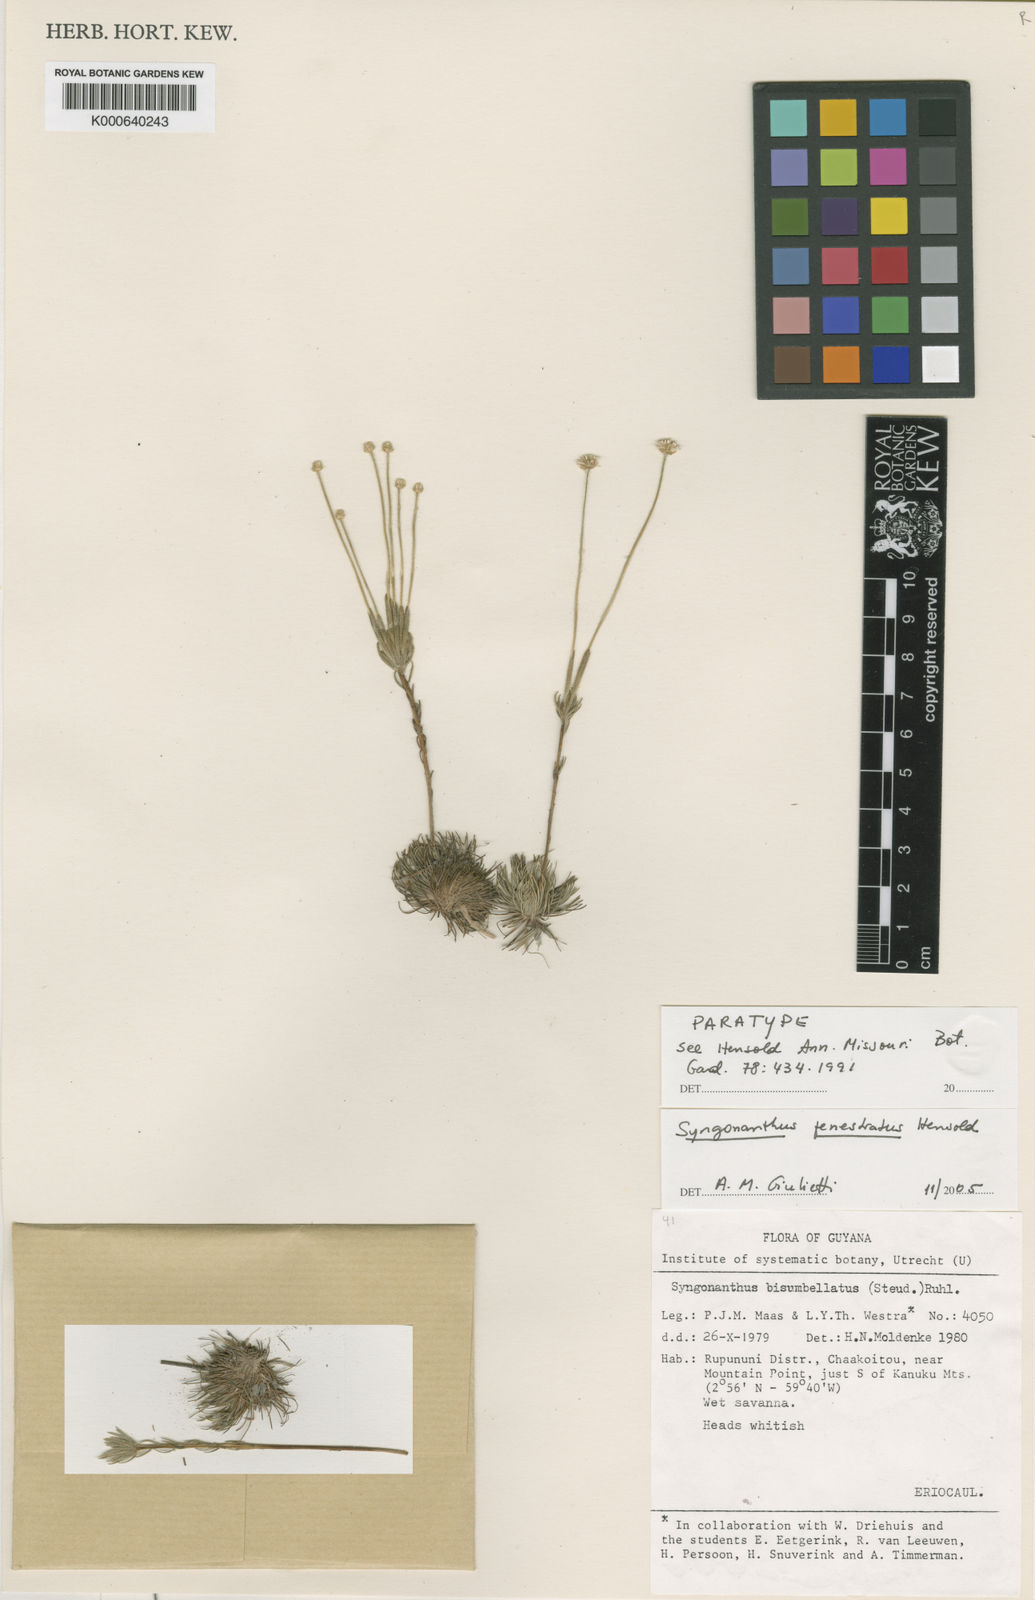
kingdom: Plantae
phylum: Tracheophyta
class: Liliopsida
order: Poales
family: Eriocaulaceae
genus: Syngonanthus
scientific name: Syngonanthus fenestratus
